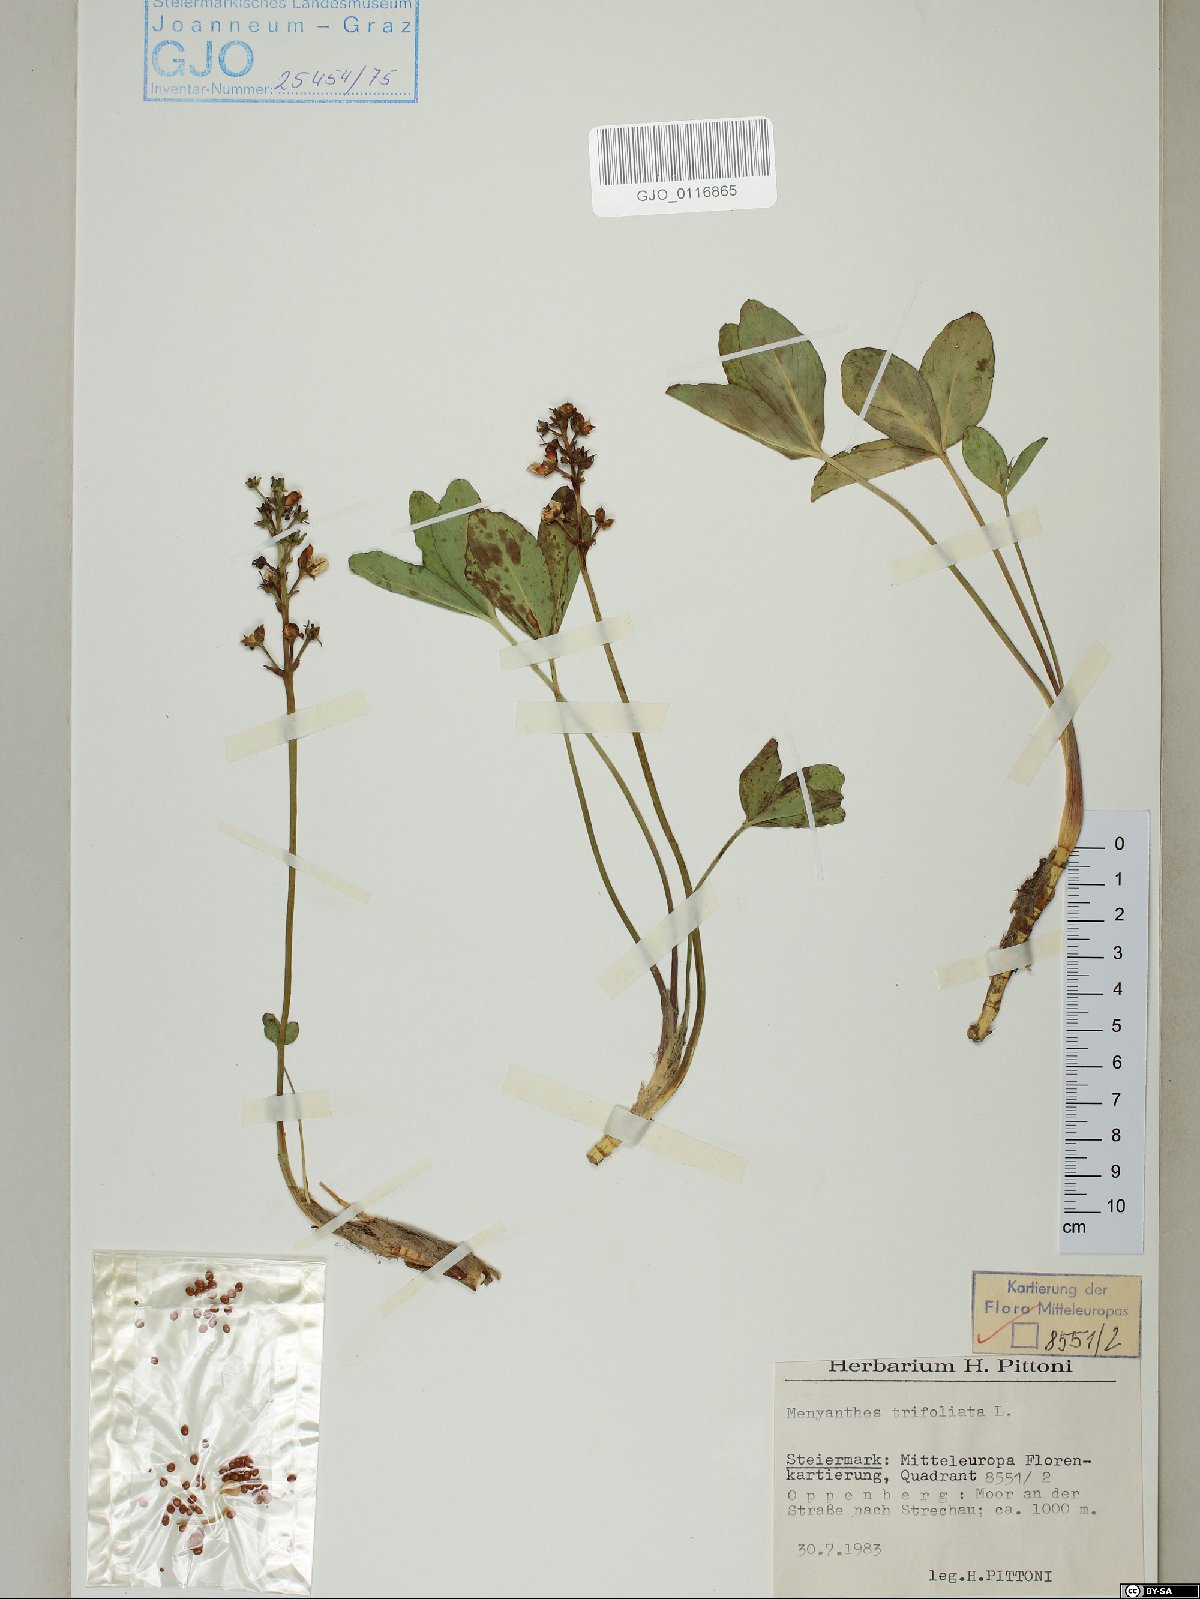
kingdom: Plantae
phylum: Tracheophyta
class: Magnoliopsida
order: Asterales
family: Menyanthaceae
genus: Menyanthes
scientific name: Menyanthes trifoliata
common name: Bogbean
